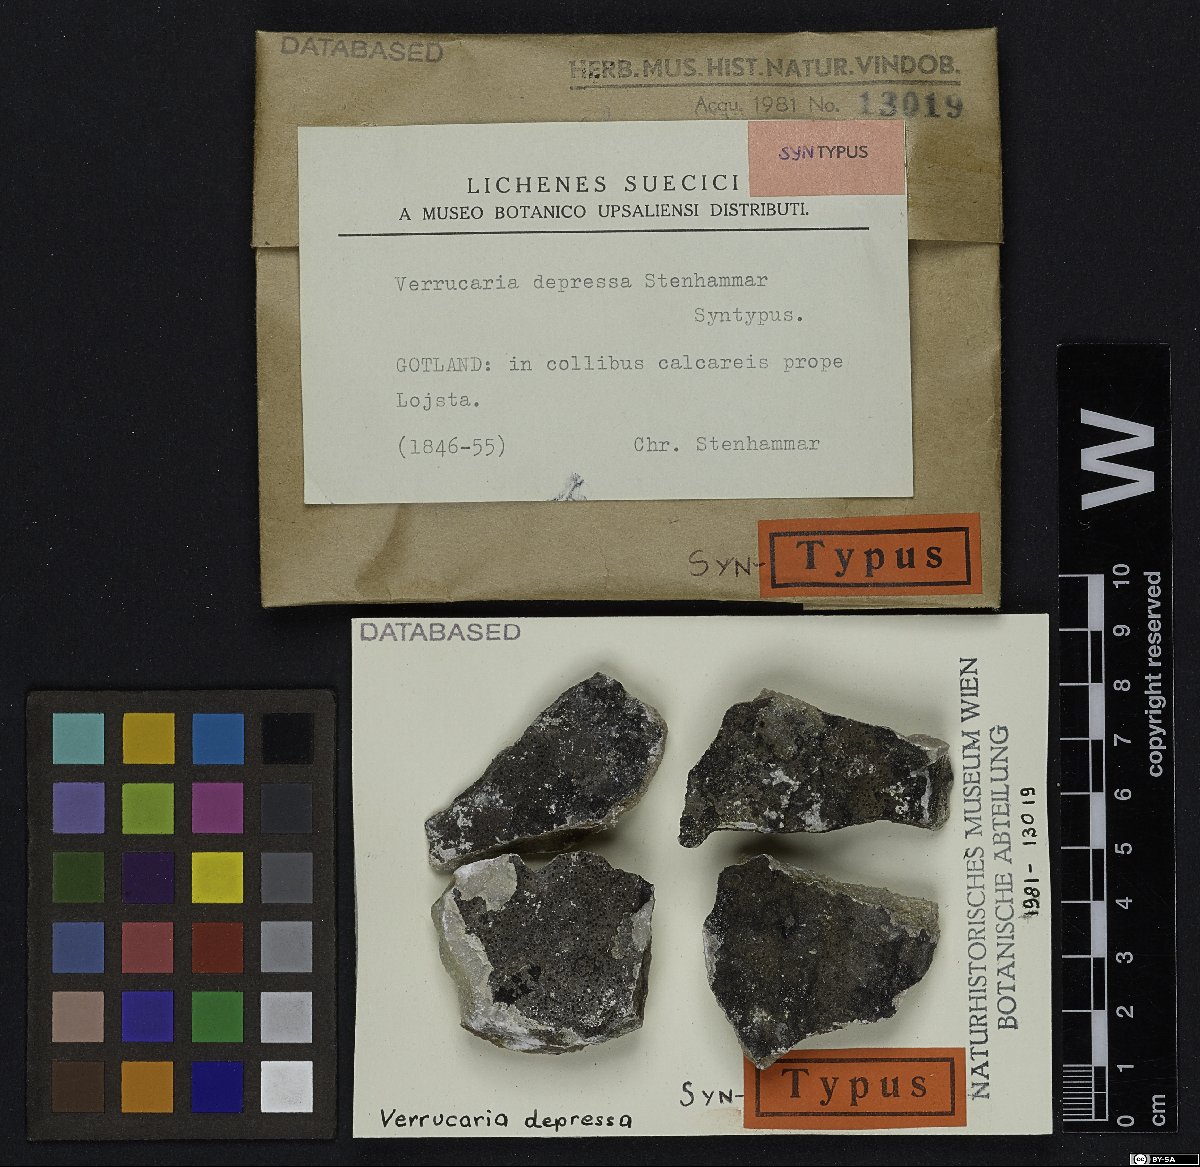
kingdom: Fungi
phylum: Ascomycota
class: Eurotiomycetes
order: Verrucariales
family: Verrucariaceae
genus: Verrucaria
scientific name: Verrucaria obscura
